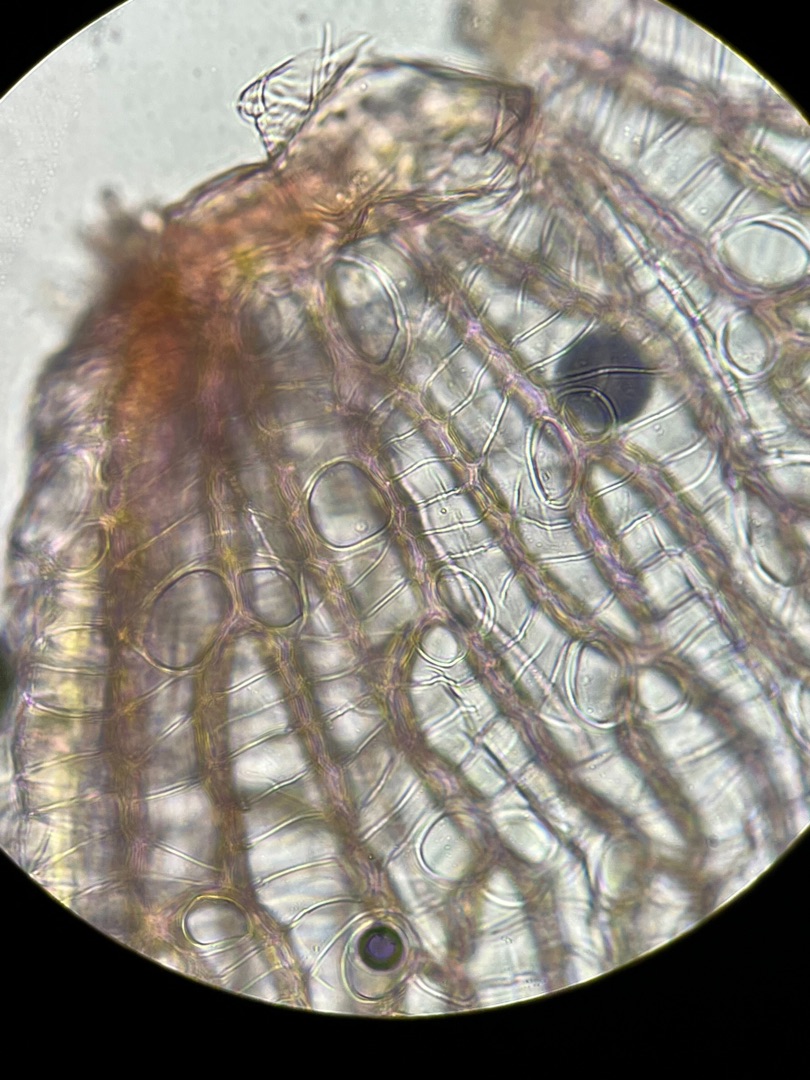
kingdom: Plantae
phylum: Bryophyta
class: Sphagnopsida
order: Sphagnales
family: Sphagnaceae
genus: Sphagnum
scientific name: Sphagnum
